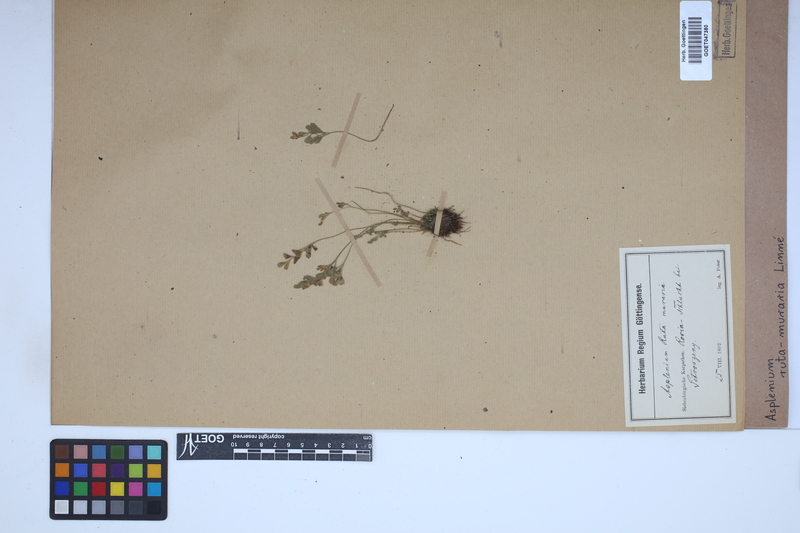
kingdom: Plantae
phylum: Tracheophyta
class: Polypodiopsida
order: Polypodiales
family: Aspleniaceae
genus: Asplenium
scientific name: Asplenium ruta-muraria
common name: Wall-rue
